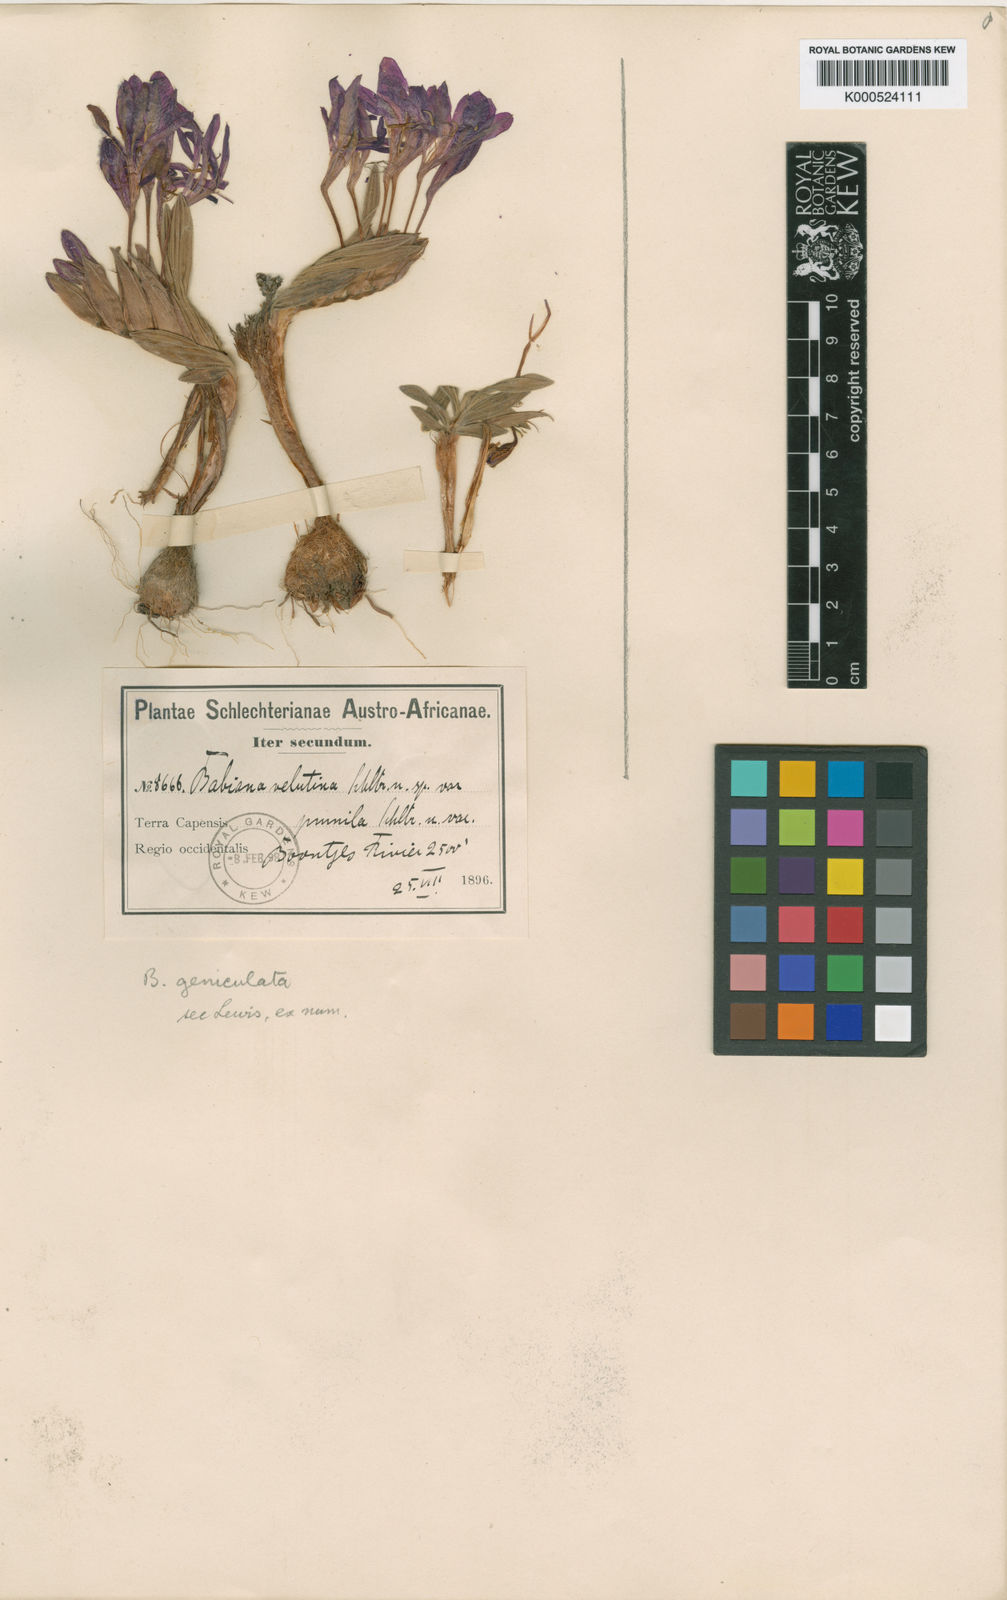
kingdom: Plantae
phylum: Tracheophyta
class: Liliopsida
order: Asparagales
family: Iridaceae
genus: Babiana
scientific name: Babiana geniculata
